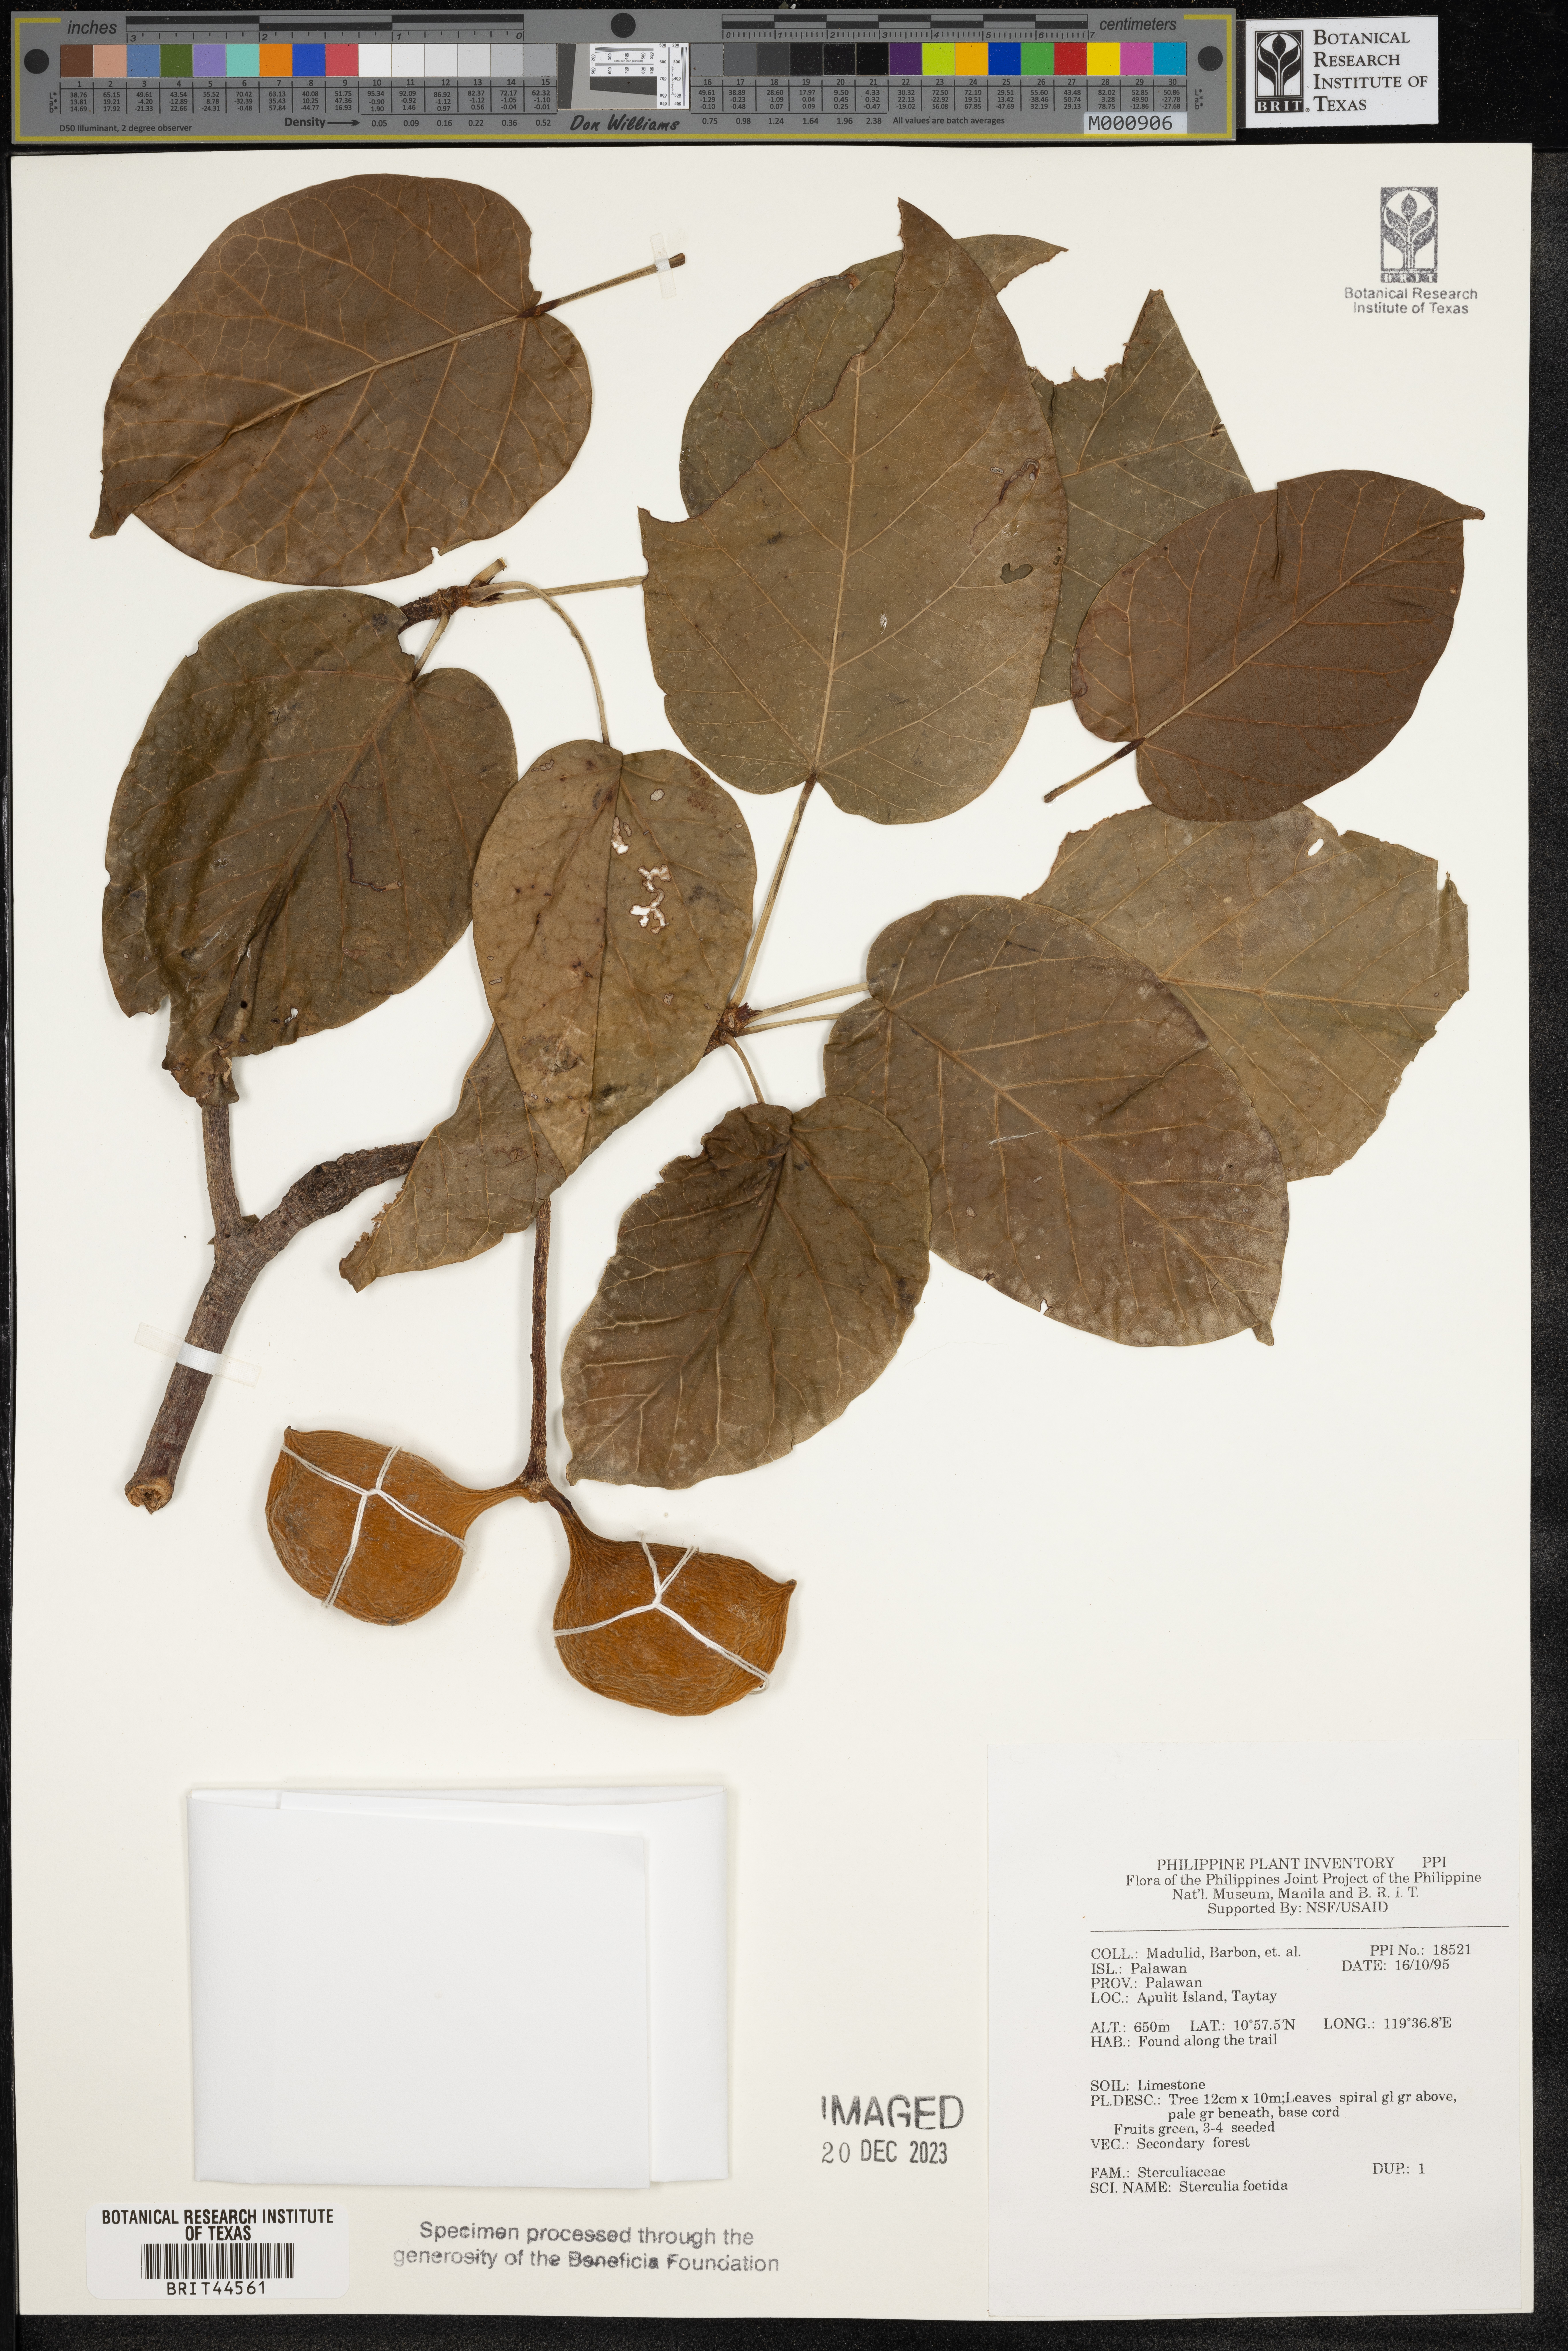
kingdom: Plantae
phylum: Tracheophyta
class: Magnoliopsida
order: Malvales
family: Malvaceae
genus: Sterculia
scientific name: Sterculia foetida
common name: Hazel sterculia
